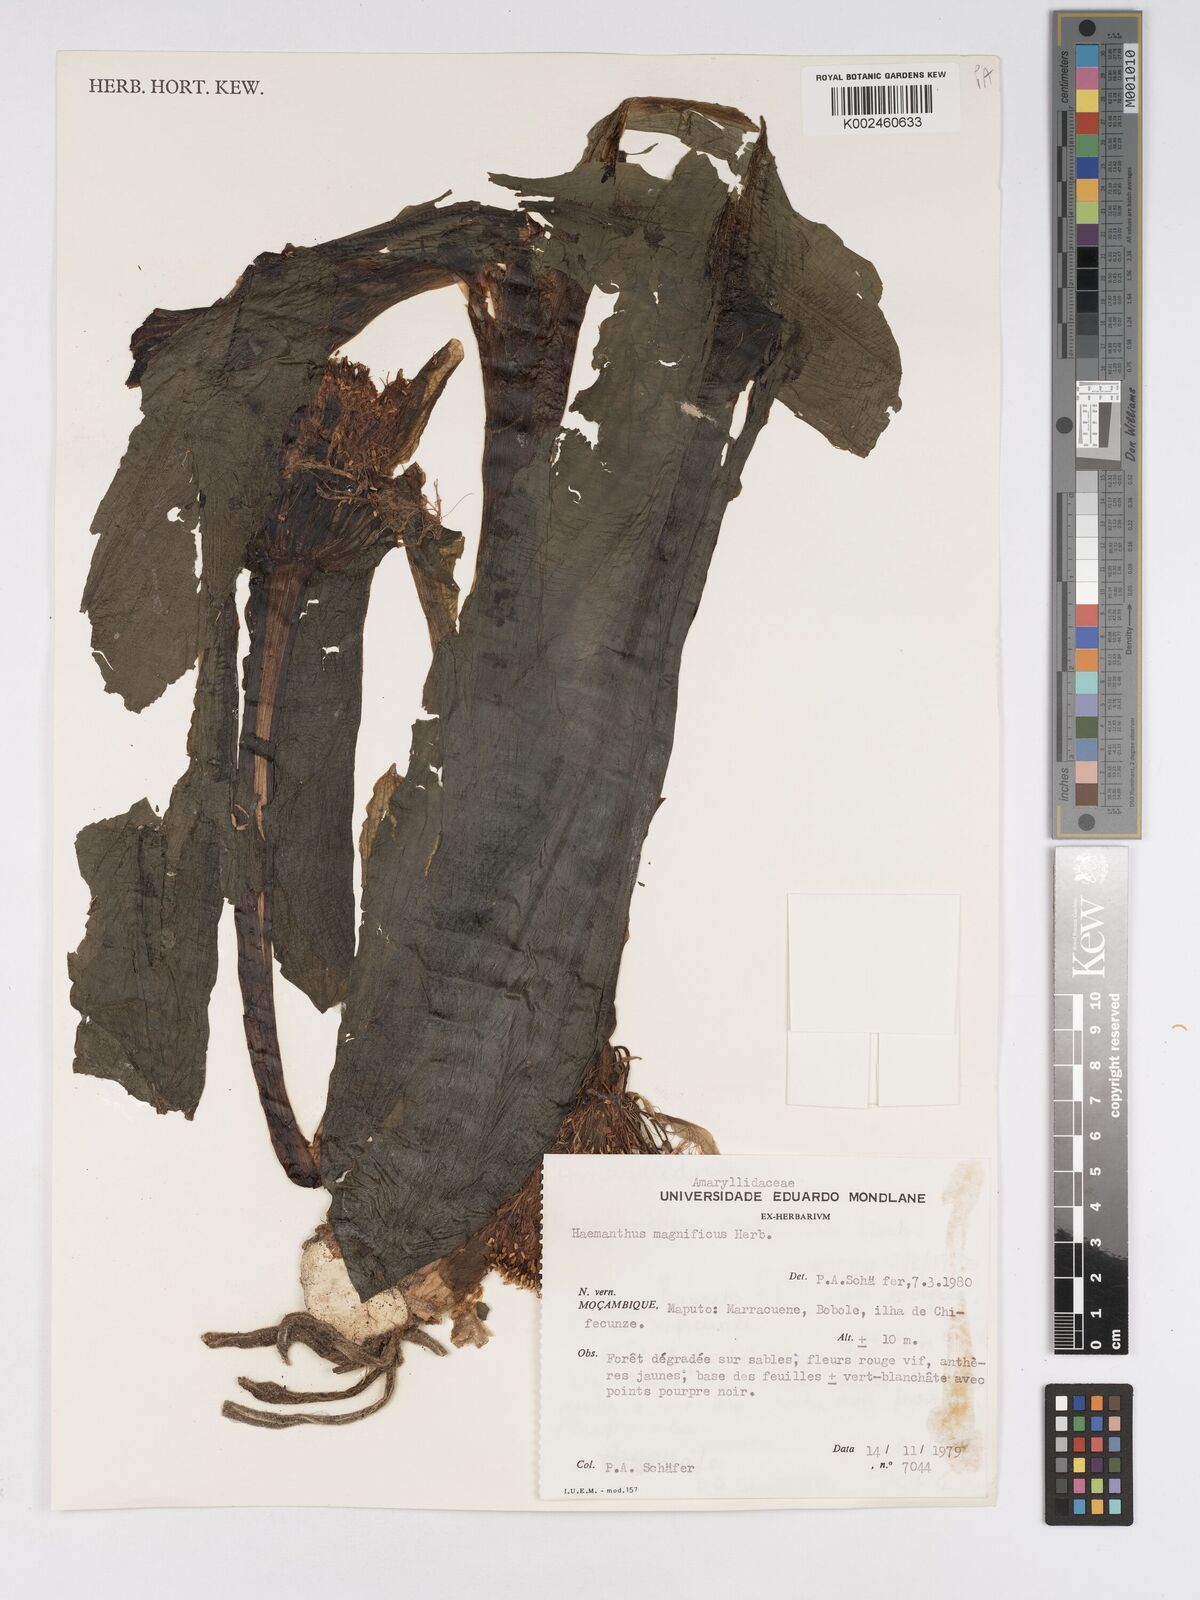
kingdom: Plantae
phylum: Tracheophyta
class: Liliopsida
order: Asparagales
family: Amaryllidaceae
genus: Scadoxus
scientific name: Scadoxus puniceus
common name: Royal-paintbrush
